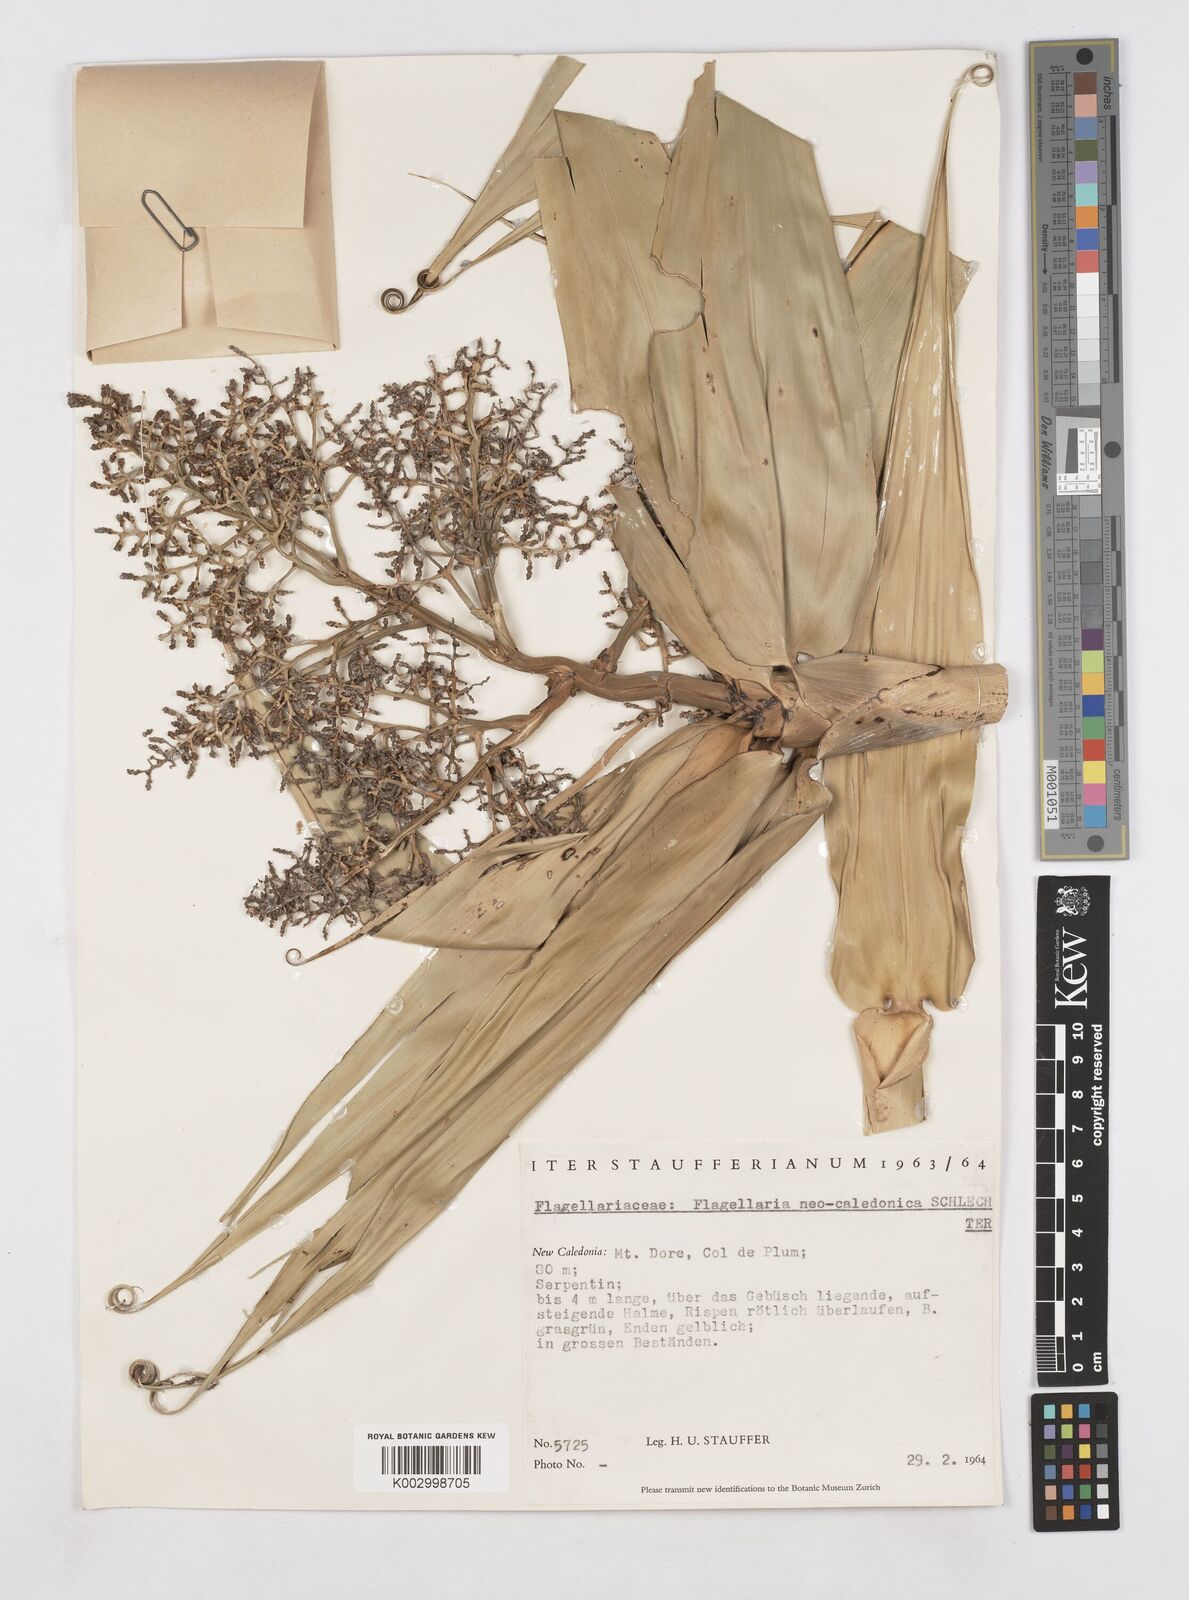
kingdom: Plantae
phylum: Tracheophyta
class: Liliopsida
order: Poales
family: Flagellariaceae
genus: Flagellaria
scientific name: Flagellaria neocaledonica
